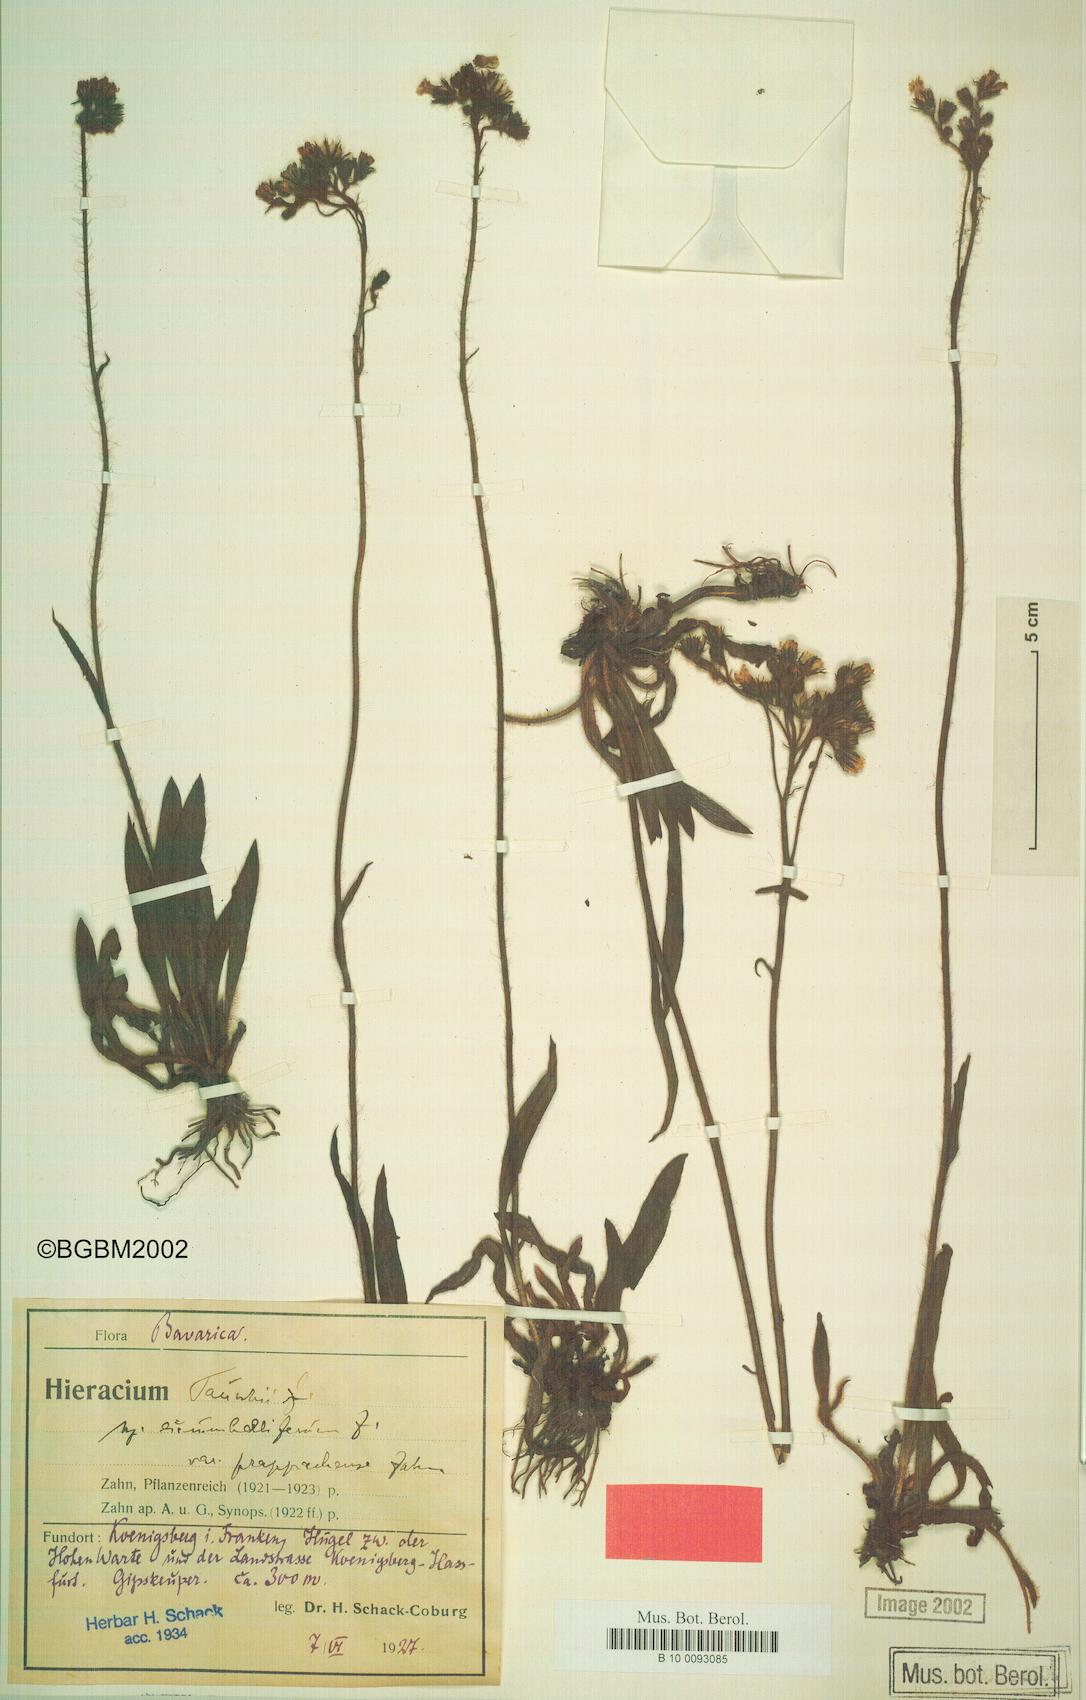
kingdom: Plantae
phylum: Tracheophyta
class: Magnoliopsida
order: Asterales
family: Asteraceae
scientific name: Asteraceae
